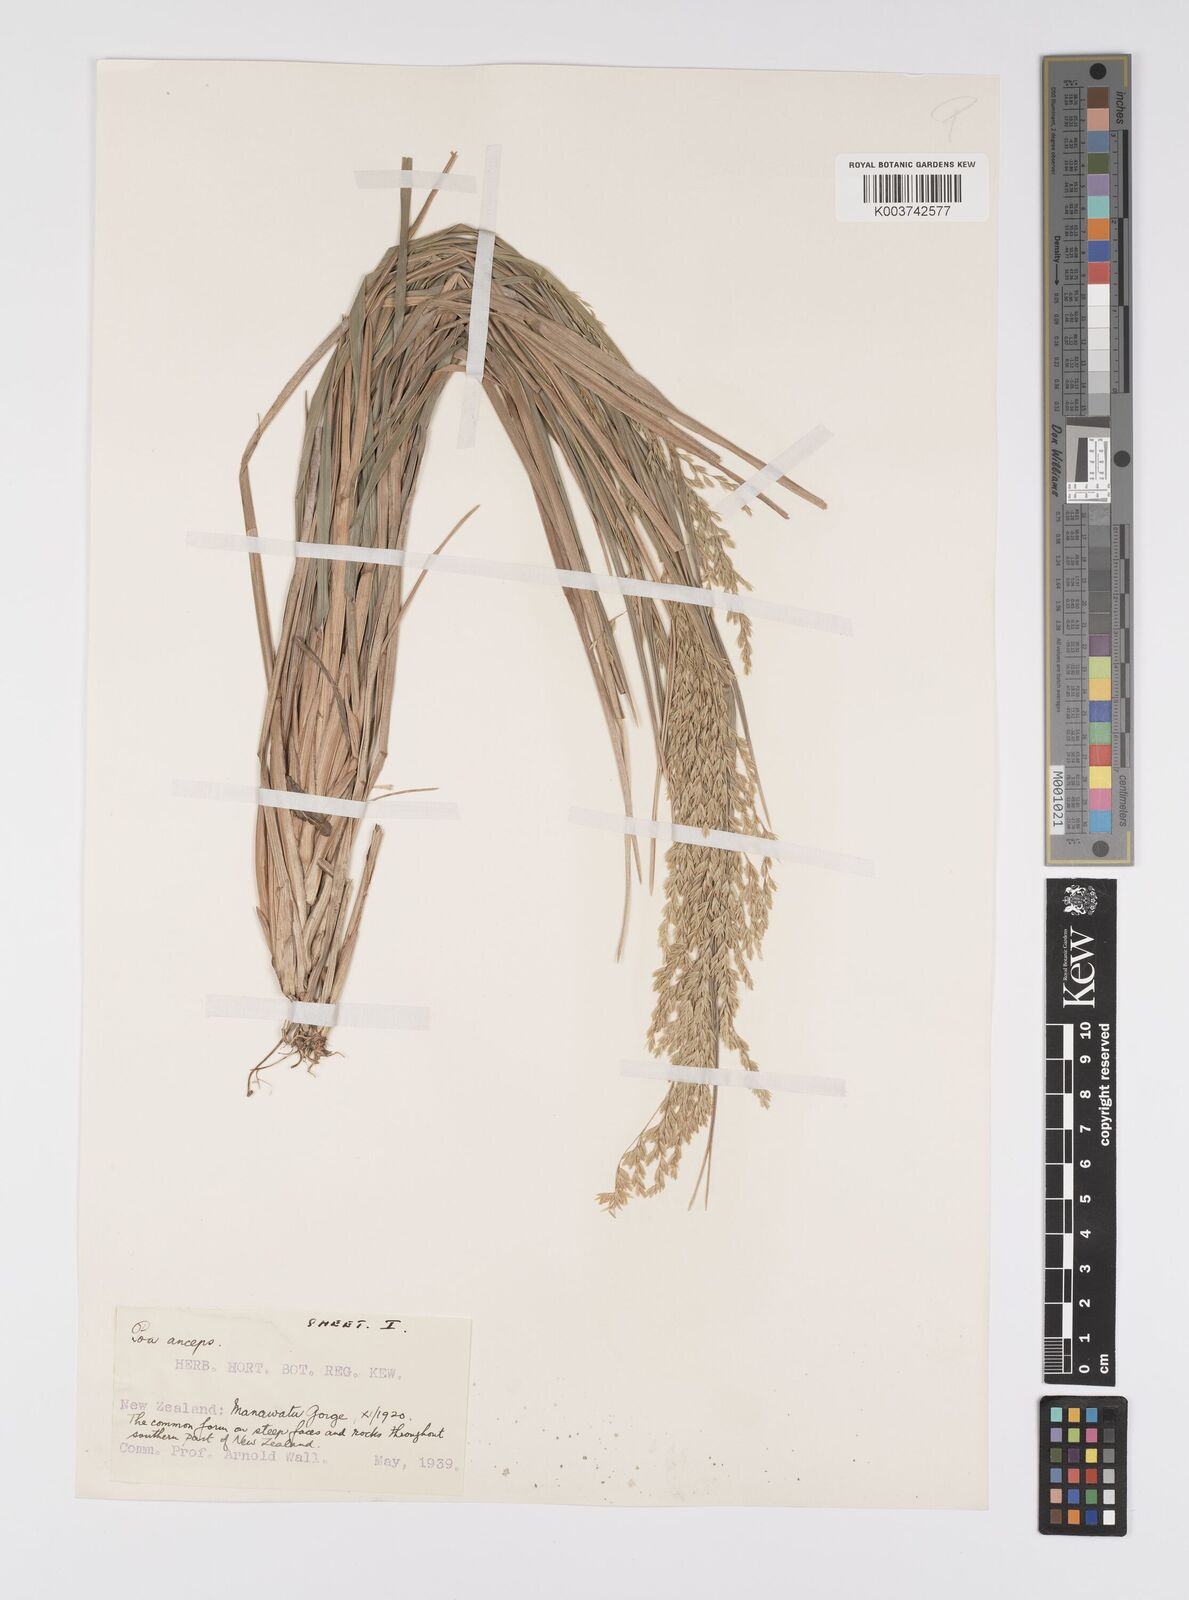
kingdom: Plantae
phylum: Tracheophyta
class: Liliopsida
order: Poales
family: Poaceae
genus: Poa
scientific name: Poa anceps
